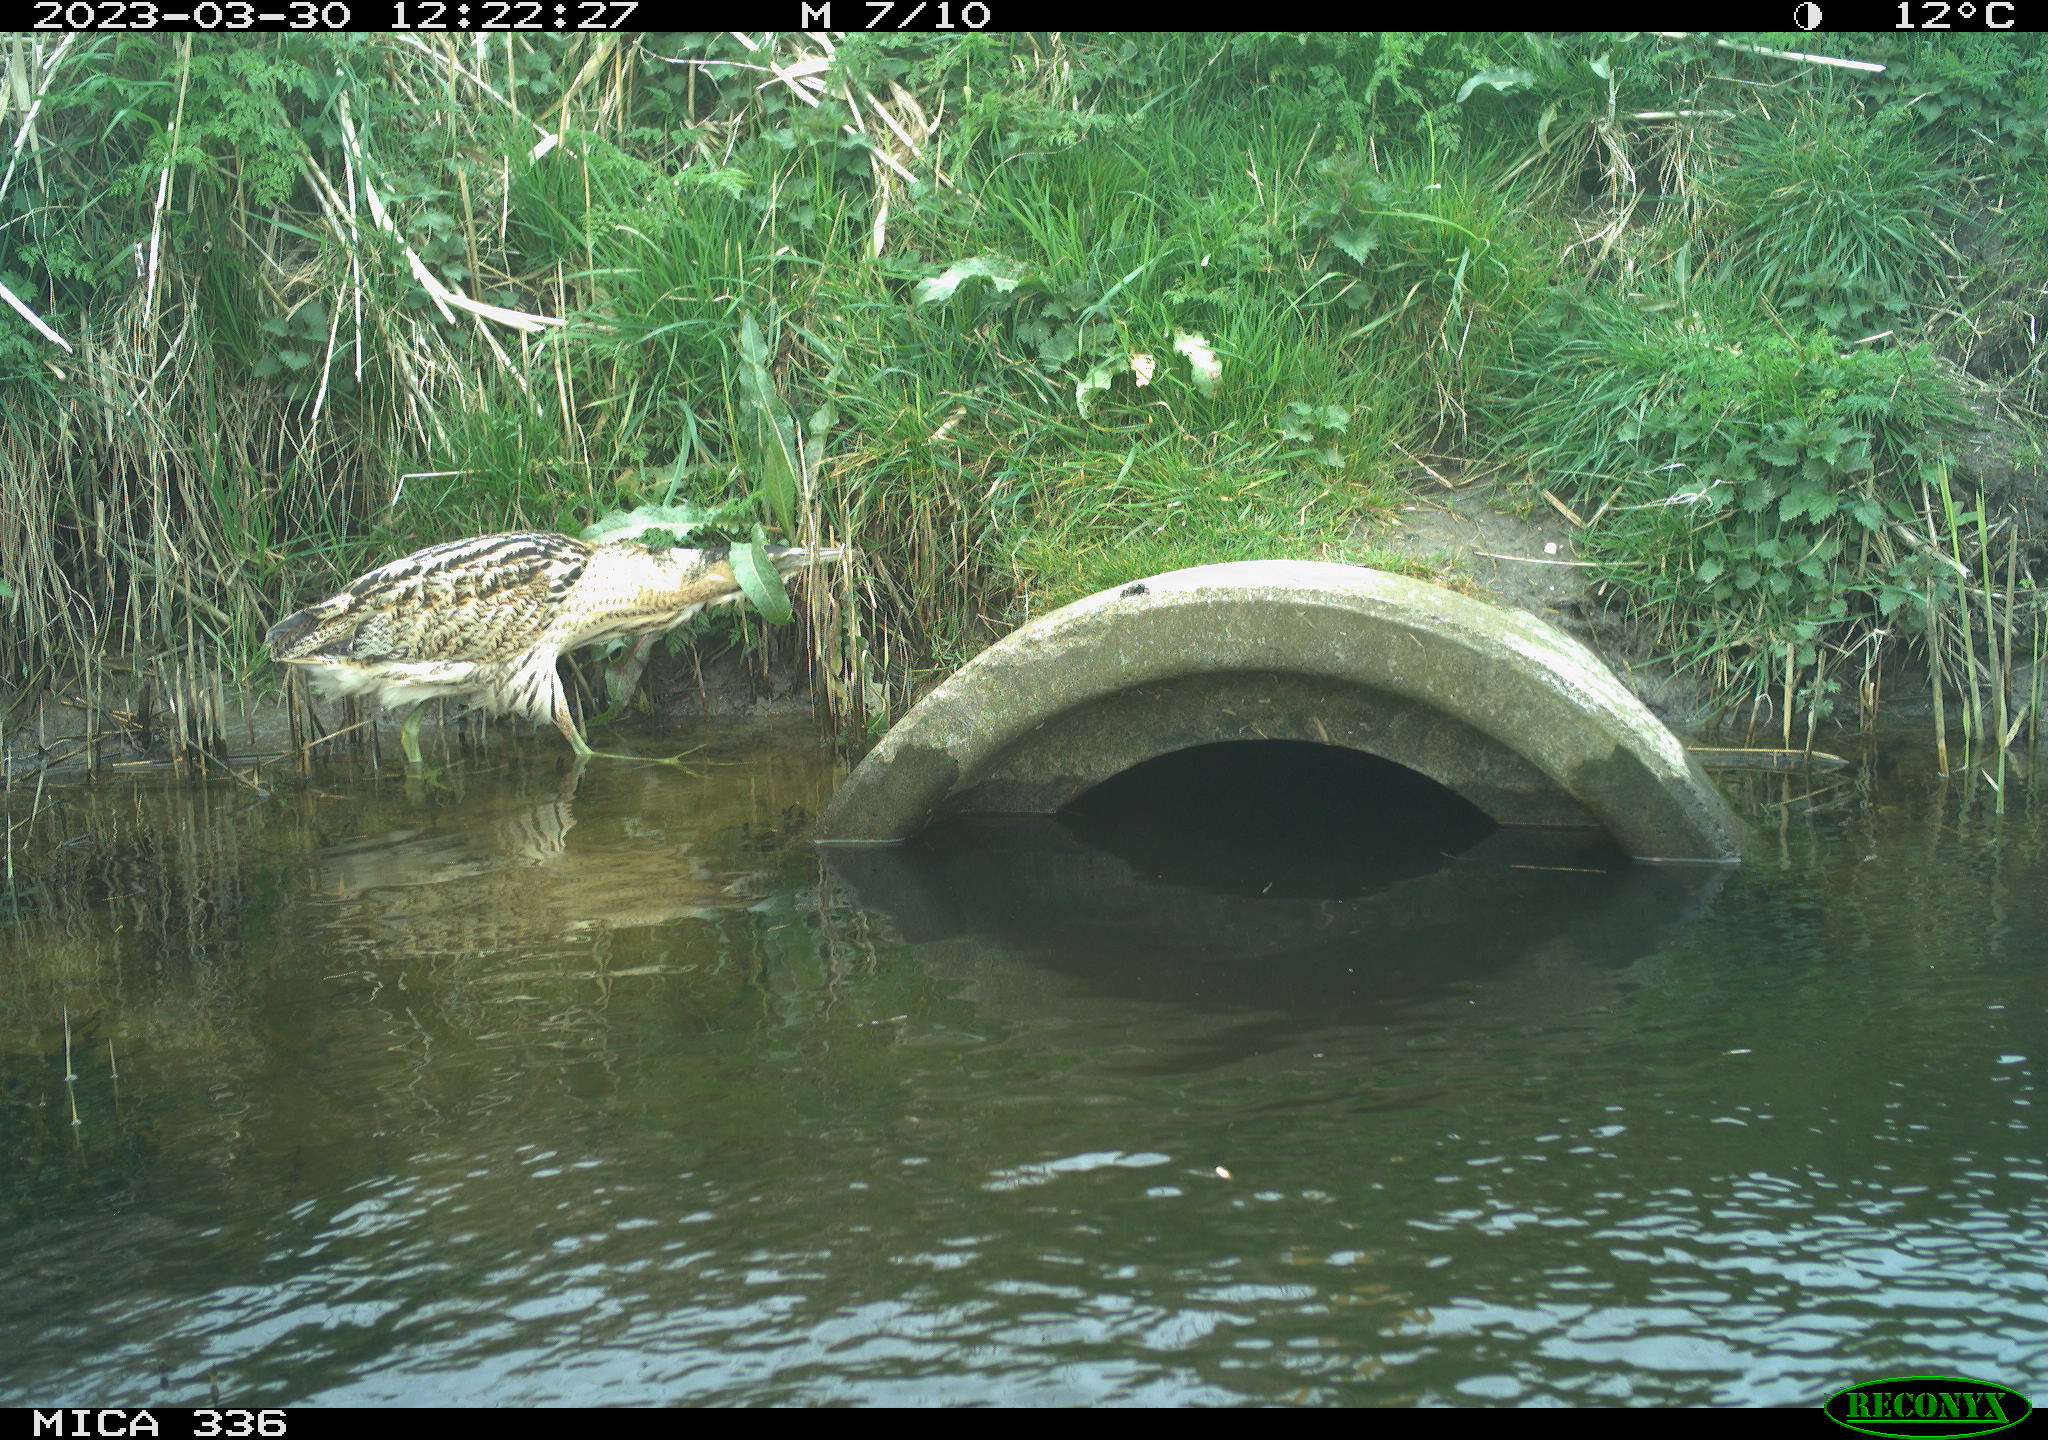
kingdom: Animalia
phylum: Chordata
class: Aves
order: Pelecaniformes
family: Ardeidae
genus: Botaurus
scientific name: Botaurus stellaris
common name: Eurasian bittern
